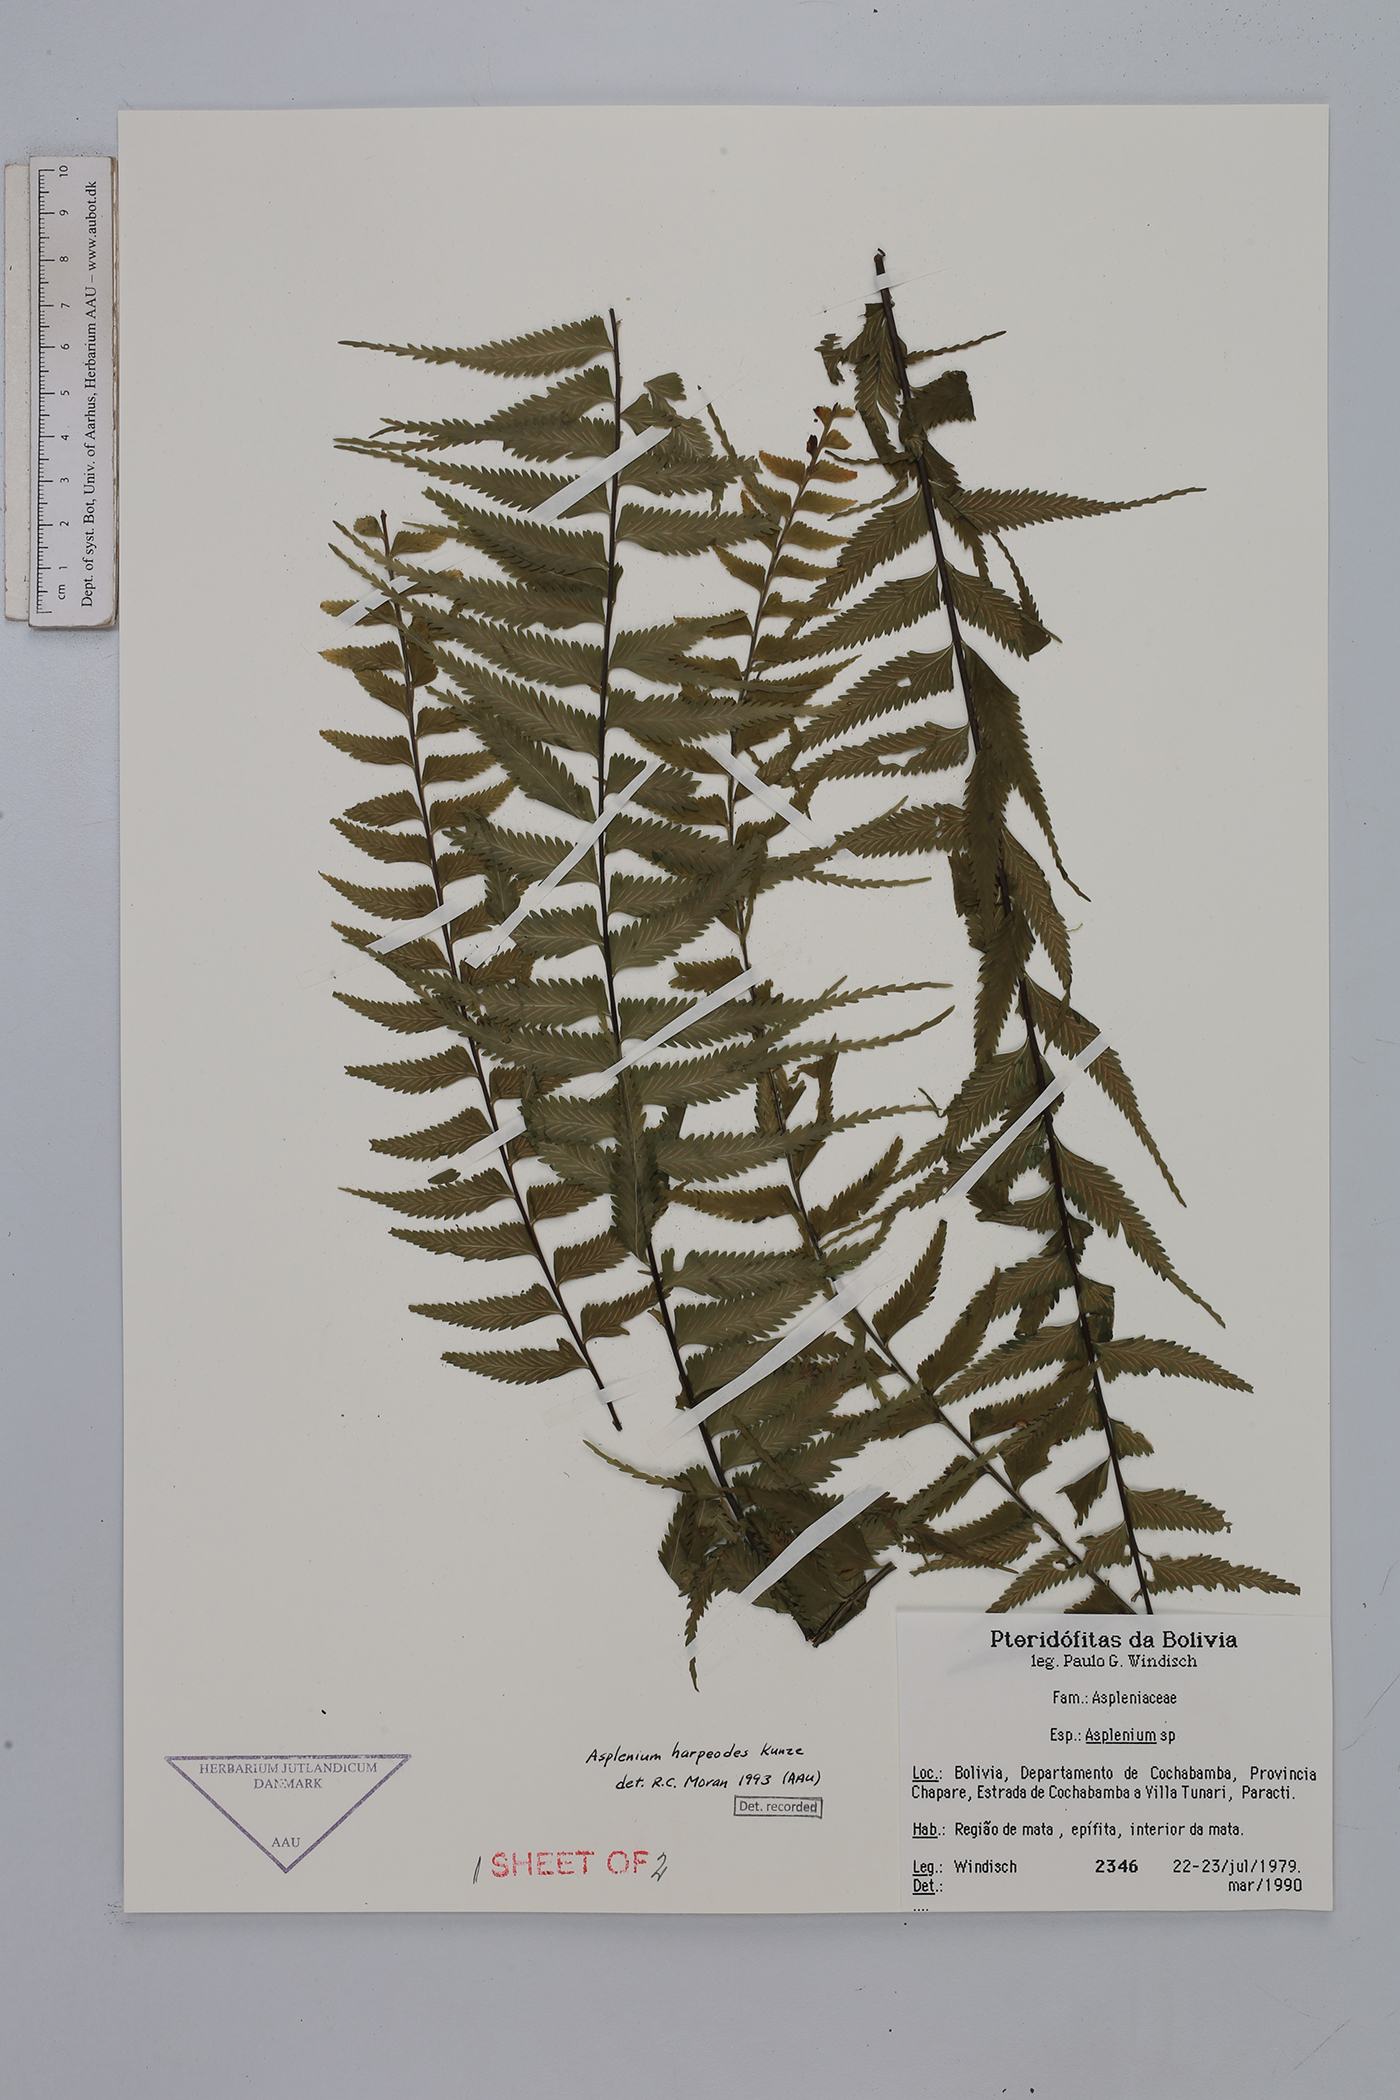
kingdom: Plantae
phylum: Tracheophyta
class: Polypodiopsida
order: Polypodiales
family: Aspleniaceae
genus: Asplenium
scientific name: Asplenium harpeodes
